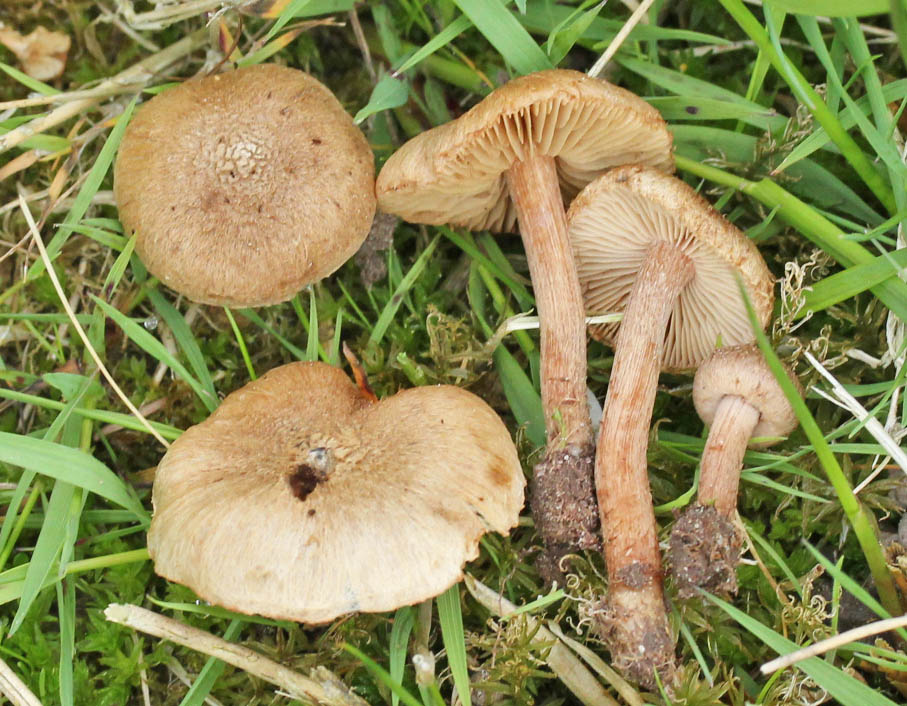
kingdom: Fungi
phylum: Basidiomycota
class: Agaricomycetes
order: Agaricales
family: Inocybaceae
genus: Inocybe
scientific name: Inocybe lacera
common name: laset trævlhat
